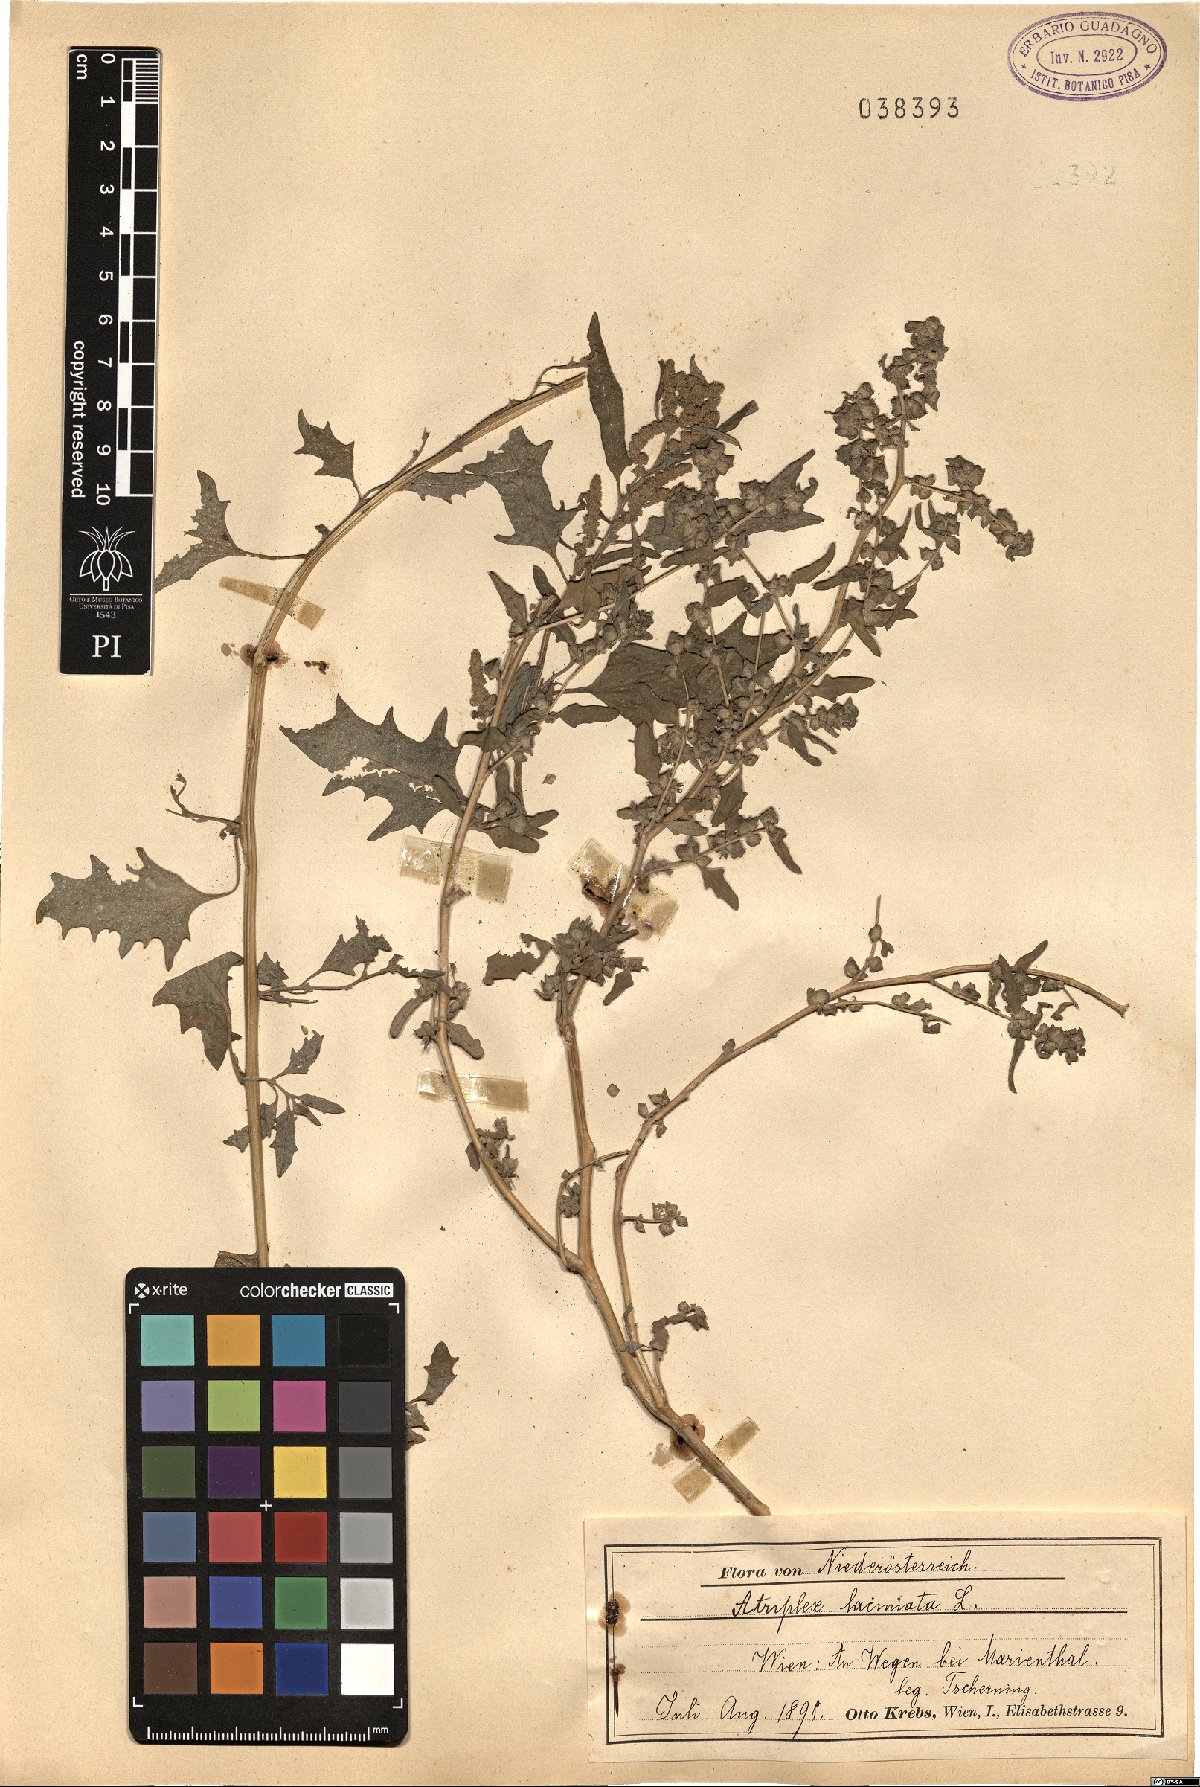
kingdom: Plantae
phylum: Tracheophyta
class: Magnoliopsida
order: Caryophyllales
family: Amaranthaceae
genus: Atriplex
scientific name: Atriplex laciniata
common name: Frosted orache
